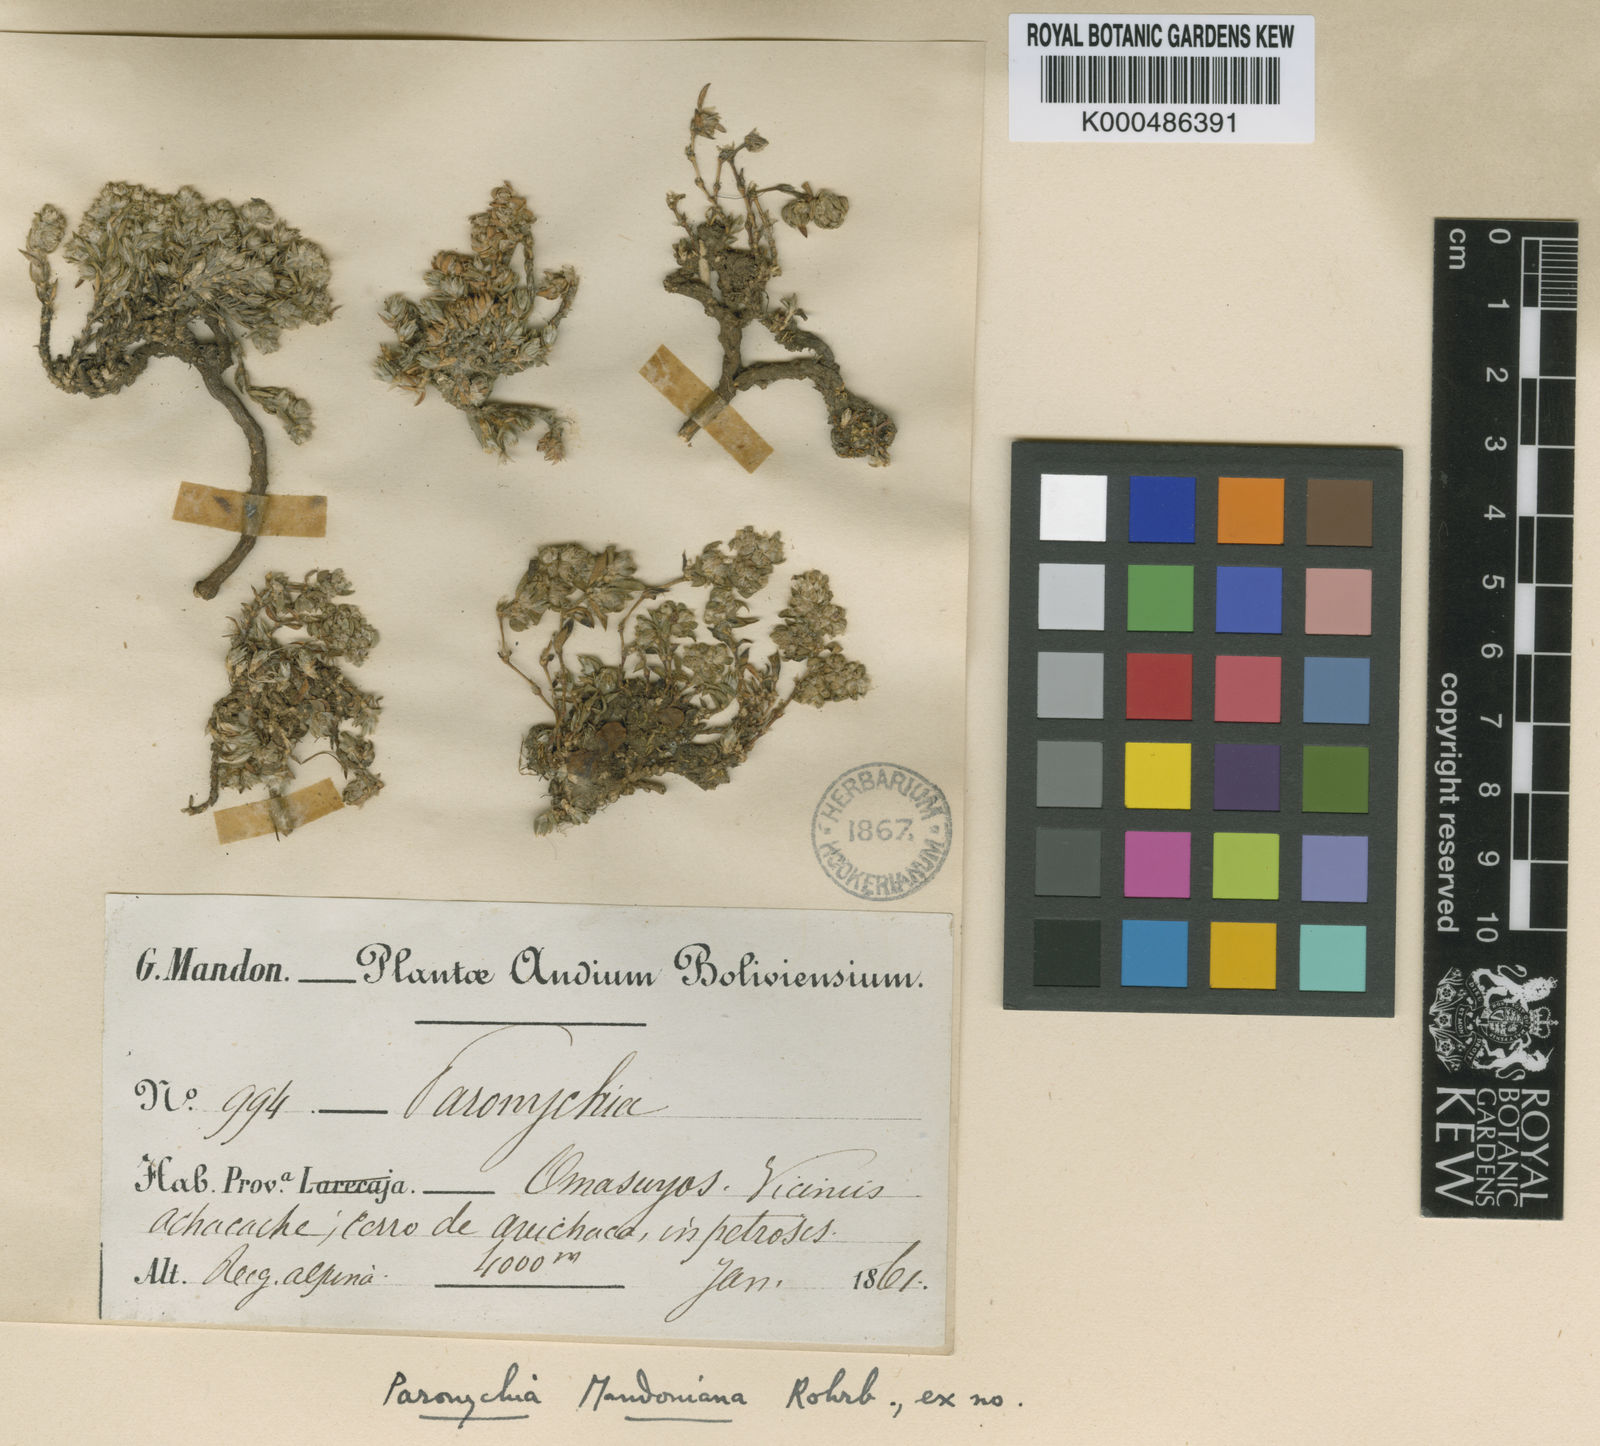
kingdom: Plantae
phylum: Tracheophyta
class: Magnoliopsida
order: Caryophyllales
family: Caryophyllaceae
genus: Paronychia
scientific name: Paronychia mandoniana
